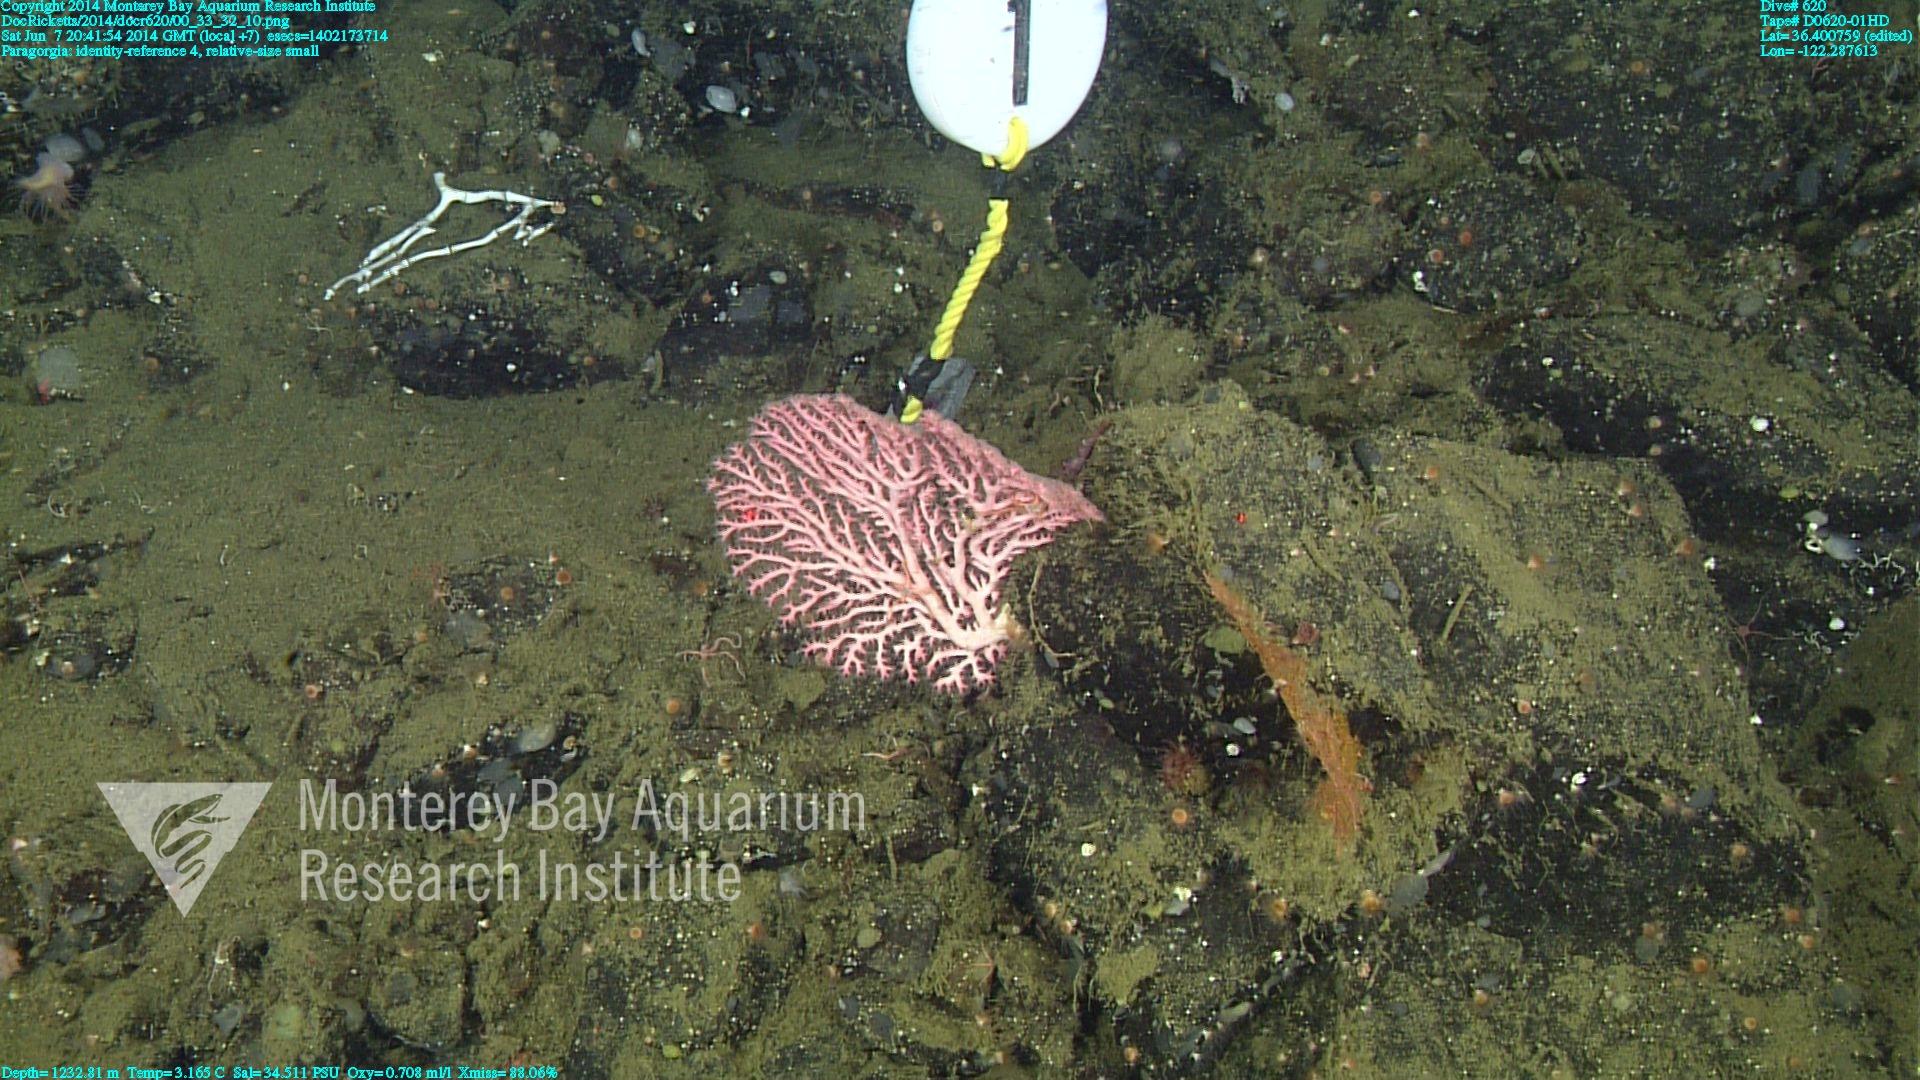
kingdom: Animalia
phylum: Cnidaria
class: Anthozoa
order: Scleralcyonacea
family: Coralliidae
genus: Paragorgia
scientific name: Paragorgia
